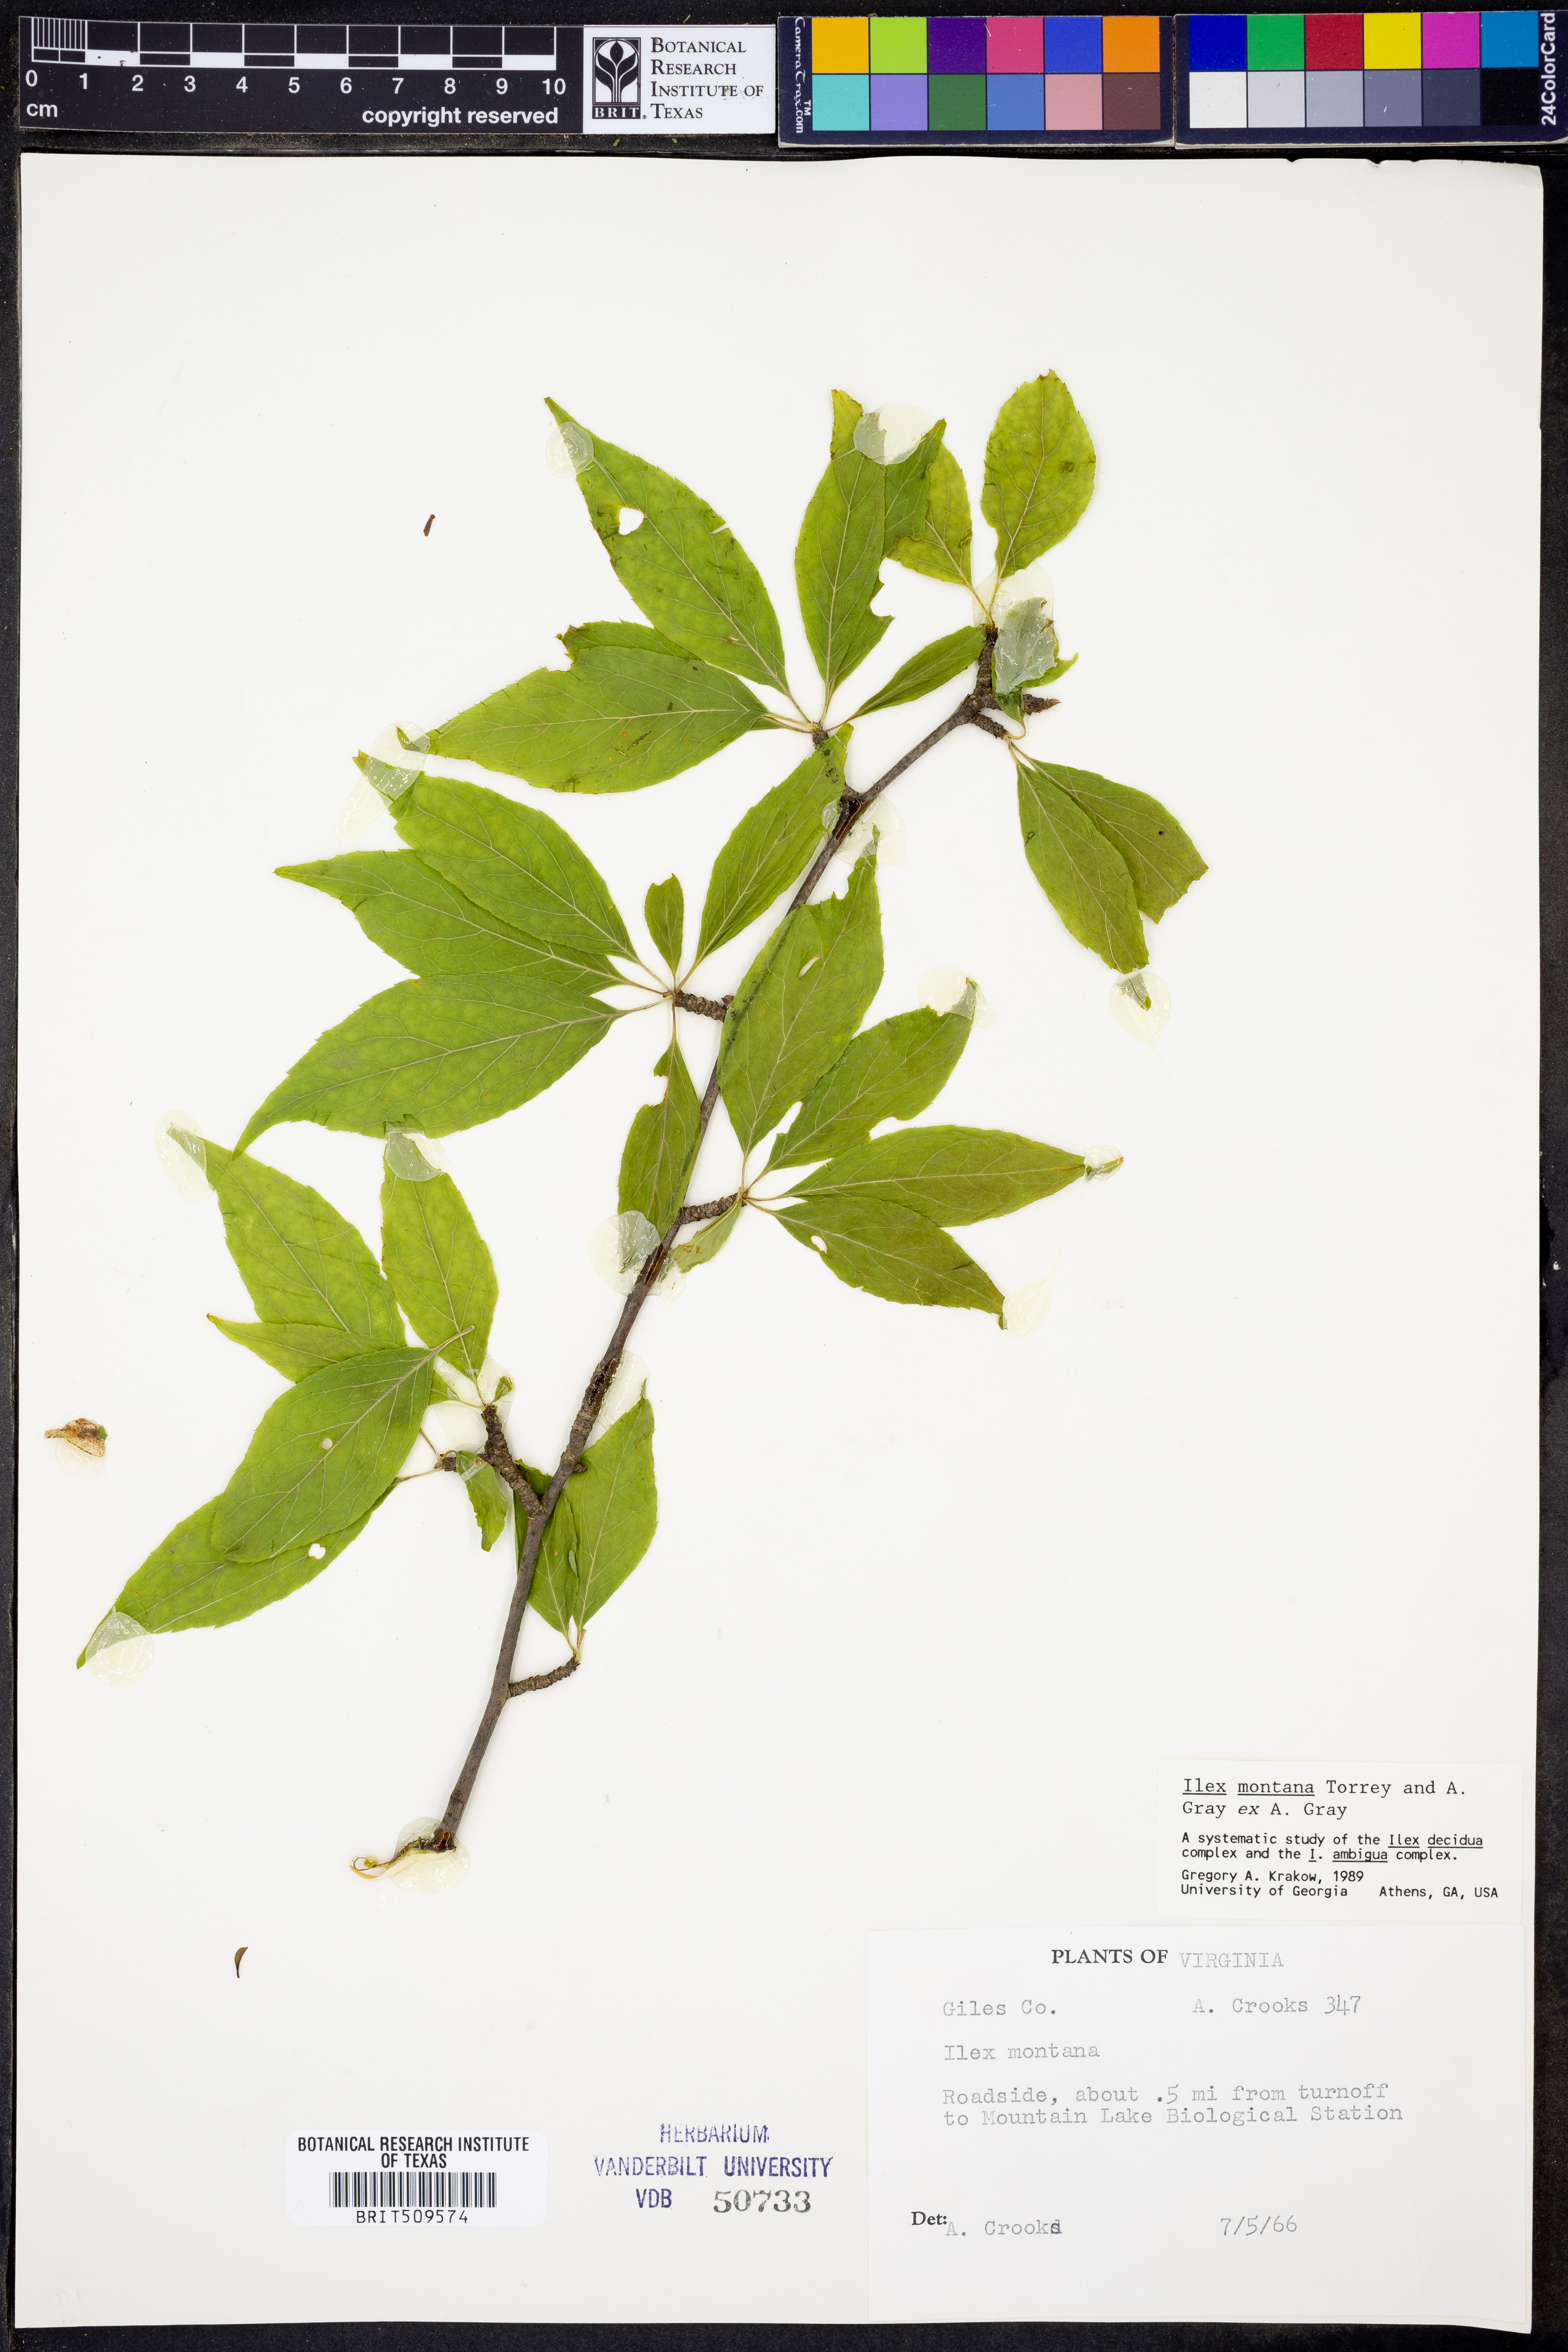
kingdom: Plantae
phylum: Tracheophyta
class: Magnoliopsida
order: Aquifoliales
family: Aquifoliaceae
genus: Ilex
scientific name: Ilex montana
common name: Mountain winterberry
